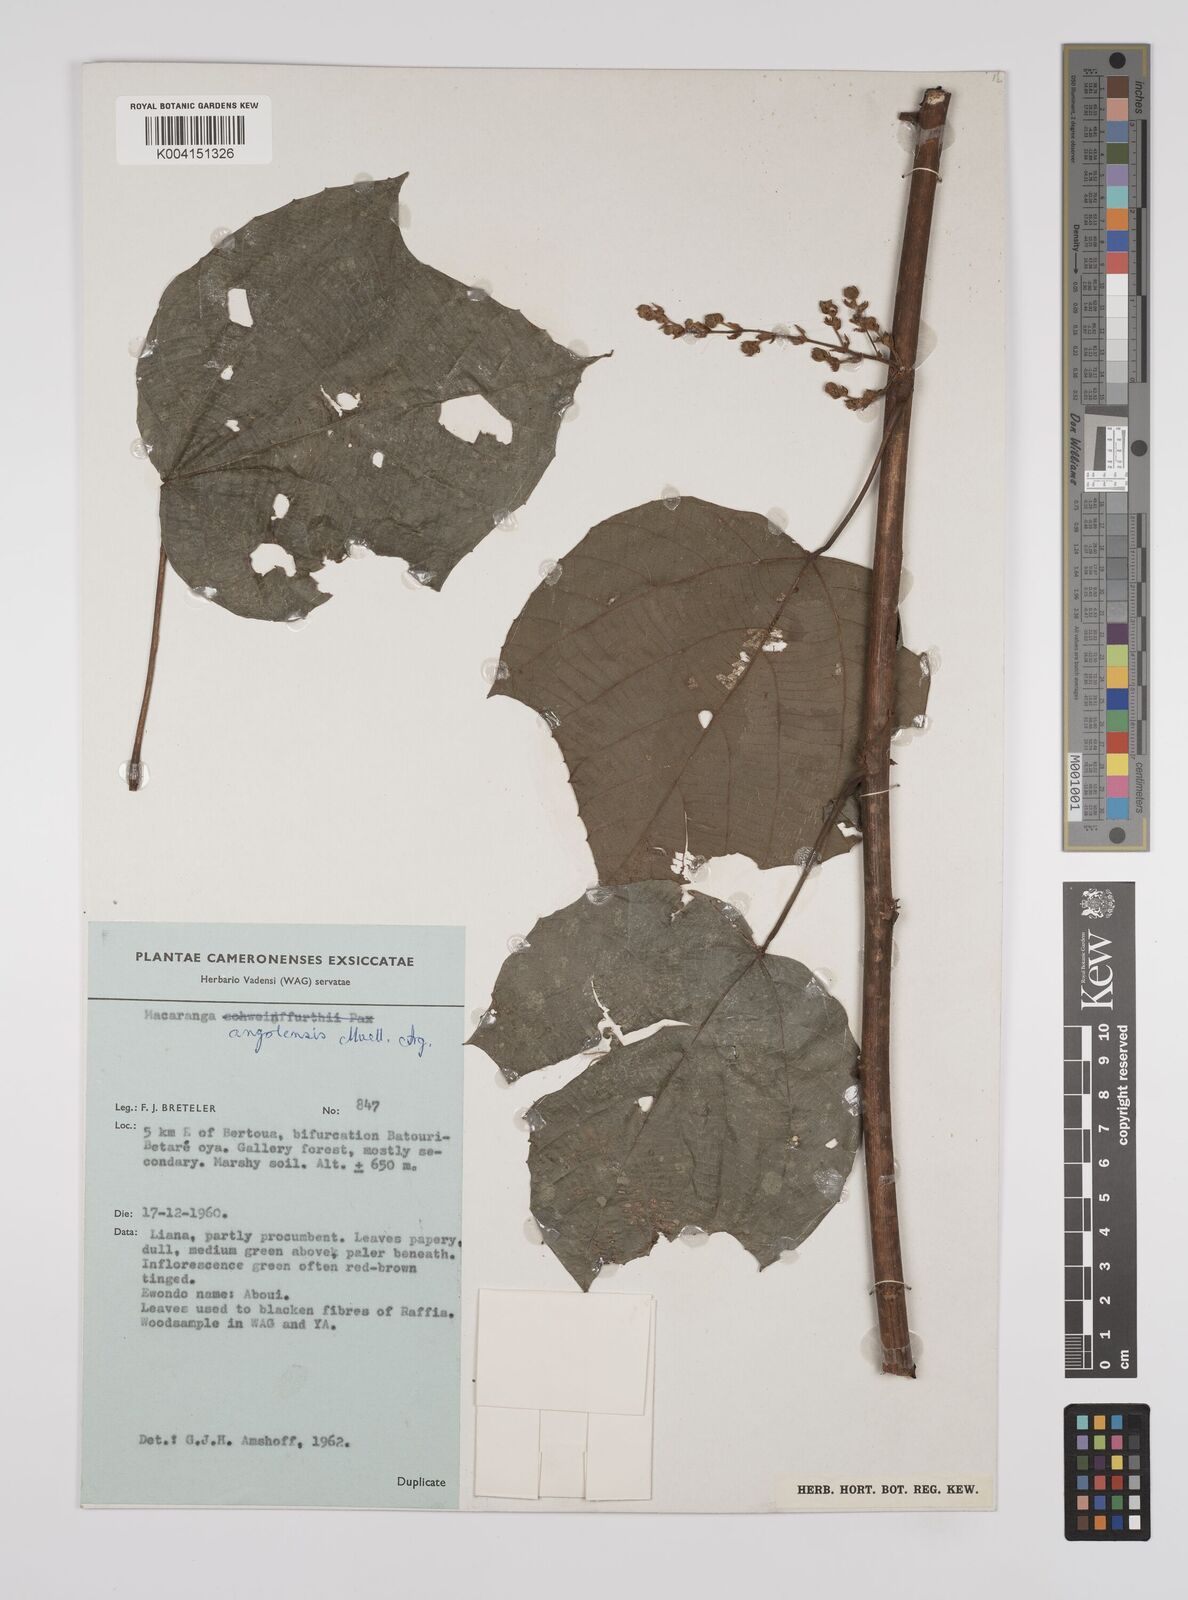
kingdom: Plantae
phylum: Tracheophyta
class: Magnoliopsida
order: Malpighiales
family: Euphorbiaceae
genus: Macaranga
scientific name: Macaranga angolensis
